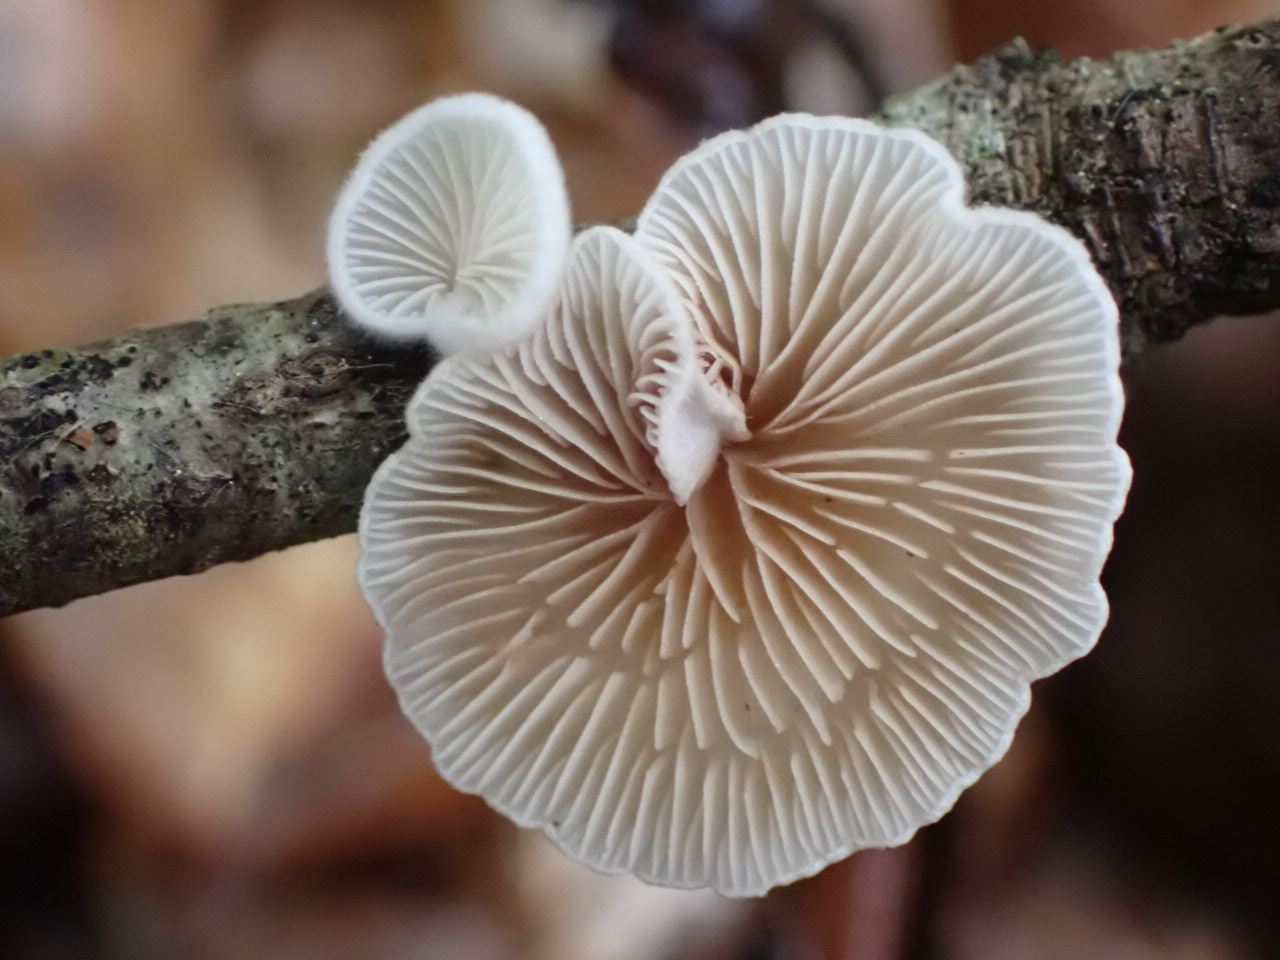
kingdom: Fungi
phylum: Basidiomycota
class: Agaricomycetes
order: Agaricales
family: Crepidotaceae
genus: Crepidotus
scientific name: Crepidotus
